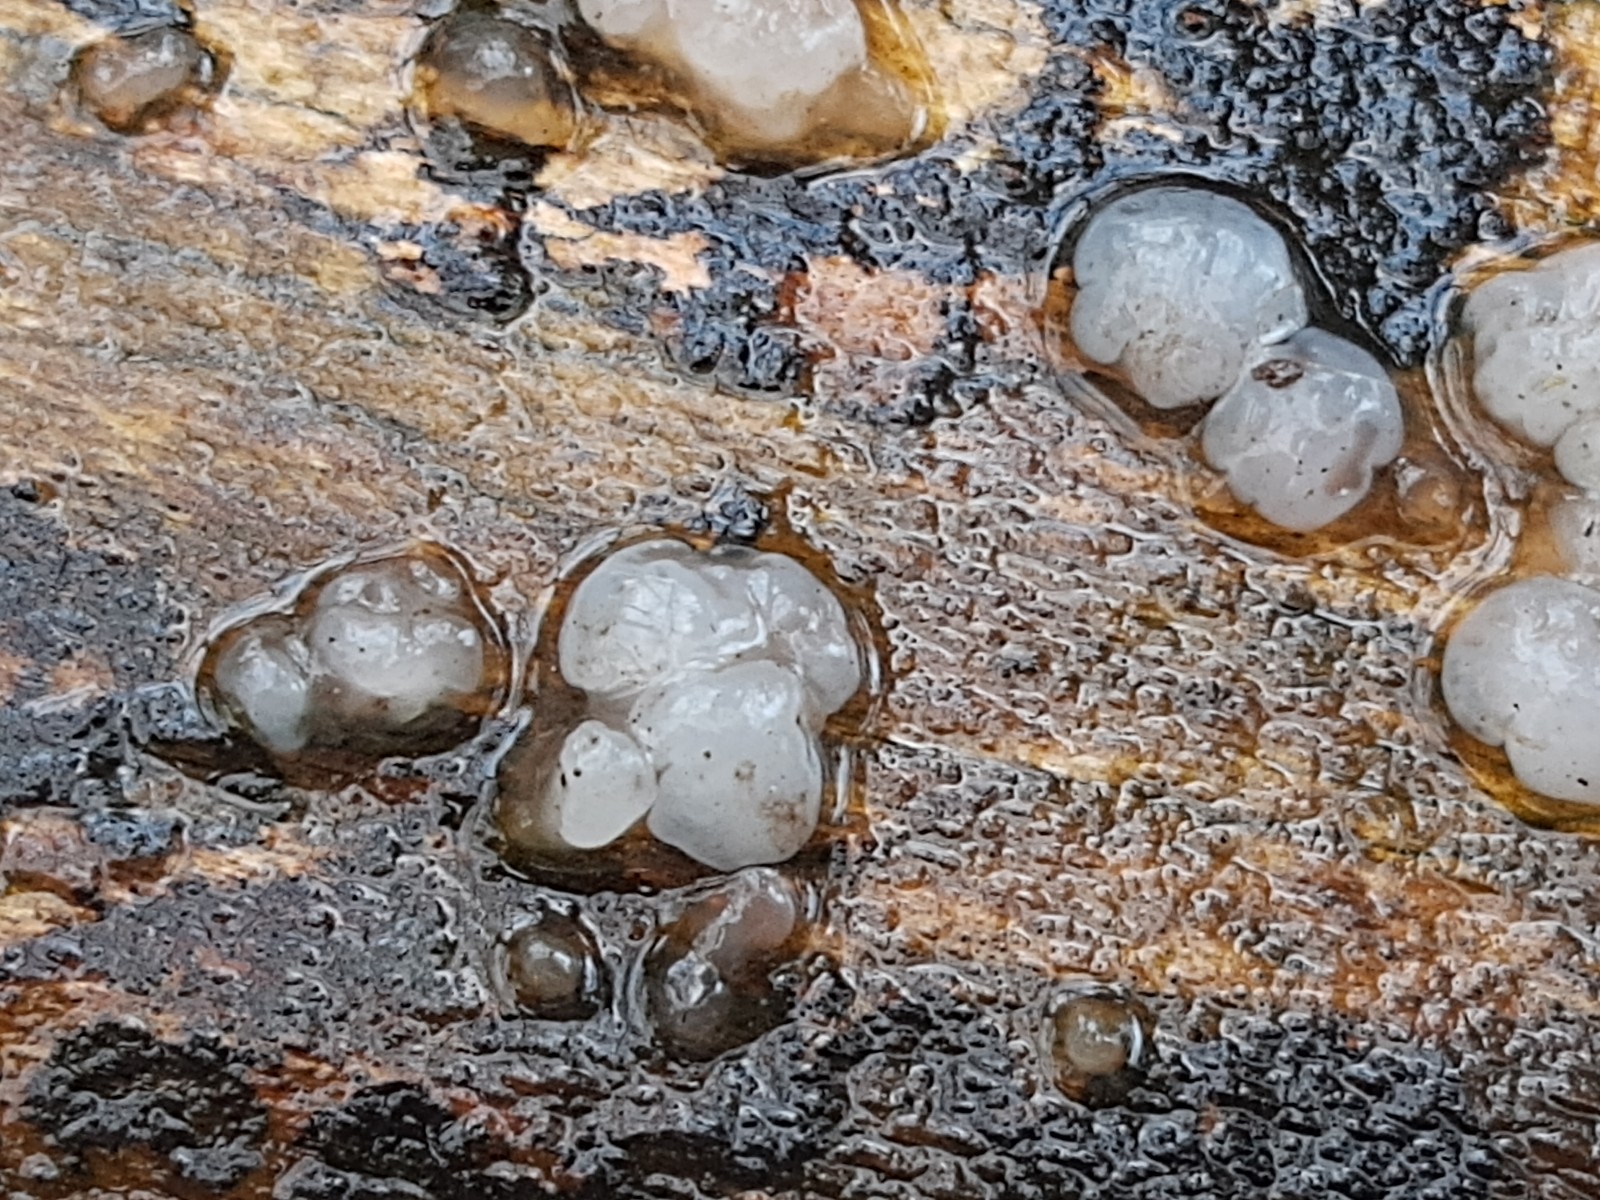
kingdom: Fungi
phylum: Basidiomycota
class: Agaricomycetes
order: Auriculariales
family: Auriculariaceae
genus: Exidia
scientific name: Exidia thuretiana
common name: hvidlig bævretop
